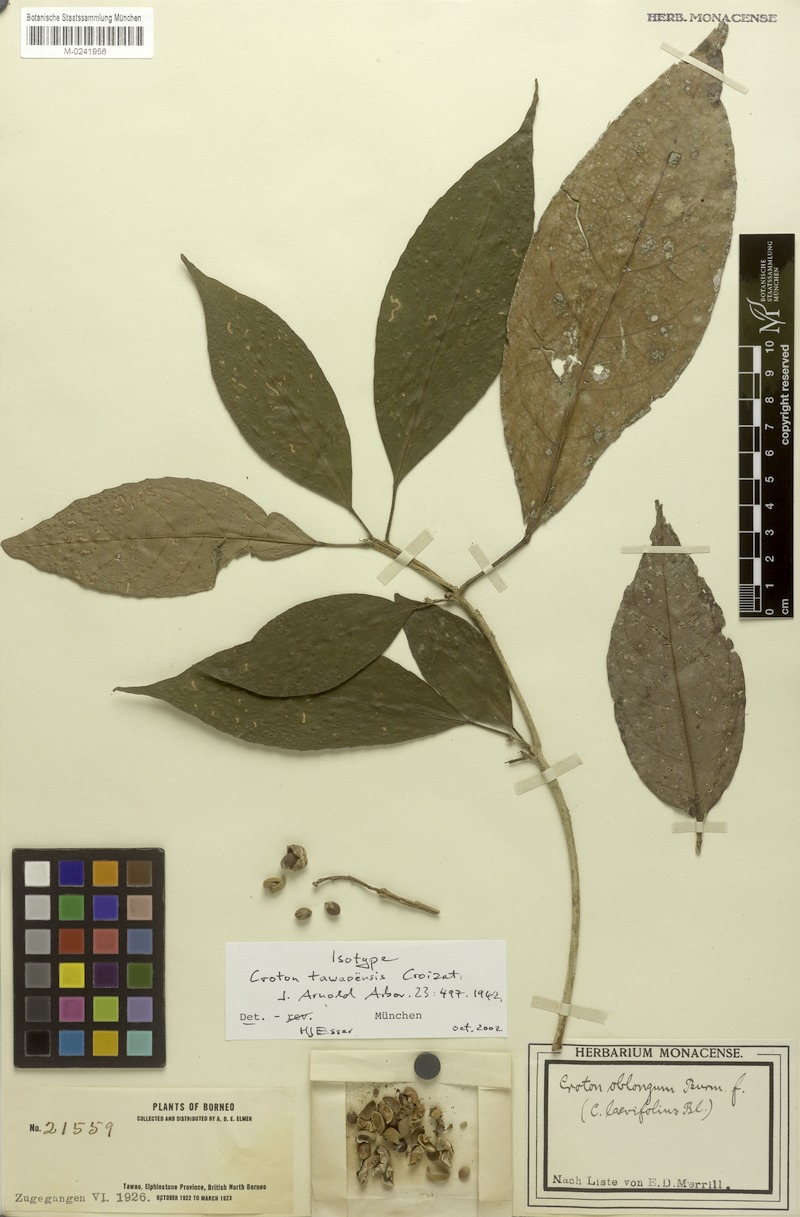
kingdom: Plantae
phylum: Tracheophyta
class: Magnoliopsida
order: Malpighiales
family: Euphorbiaceae
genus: Croton
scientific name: Croton argyratus
